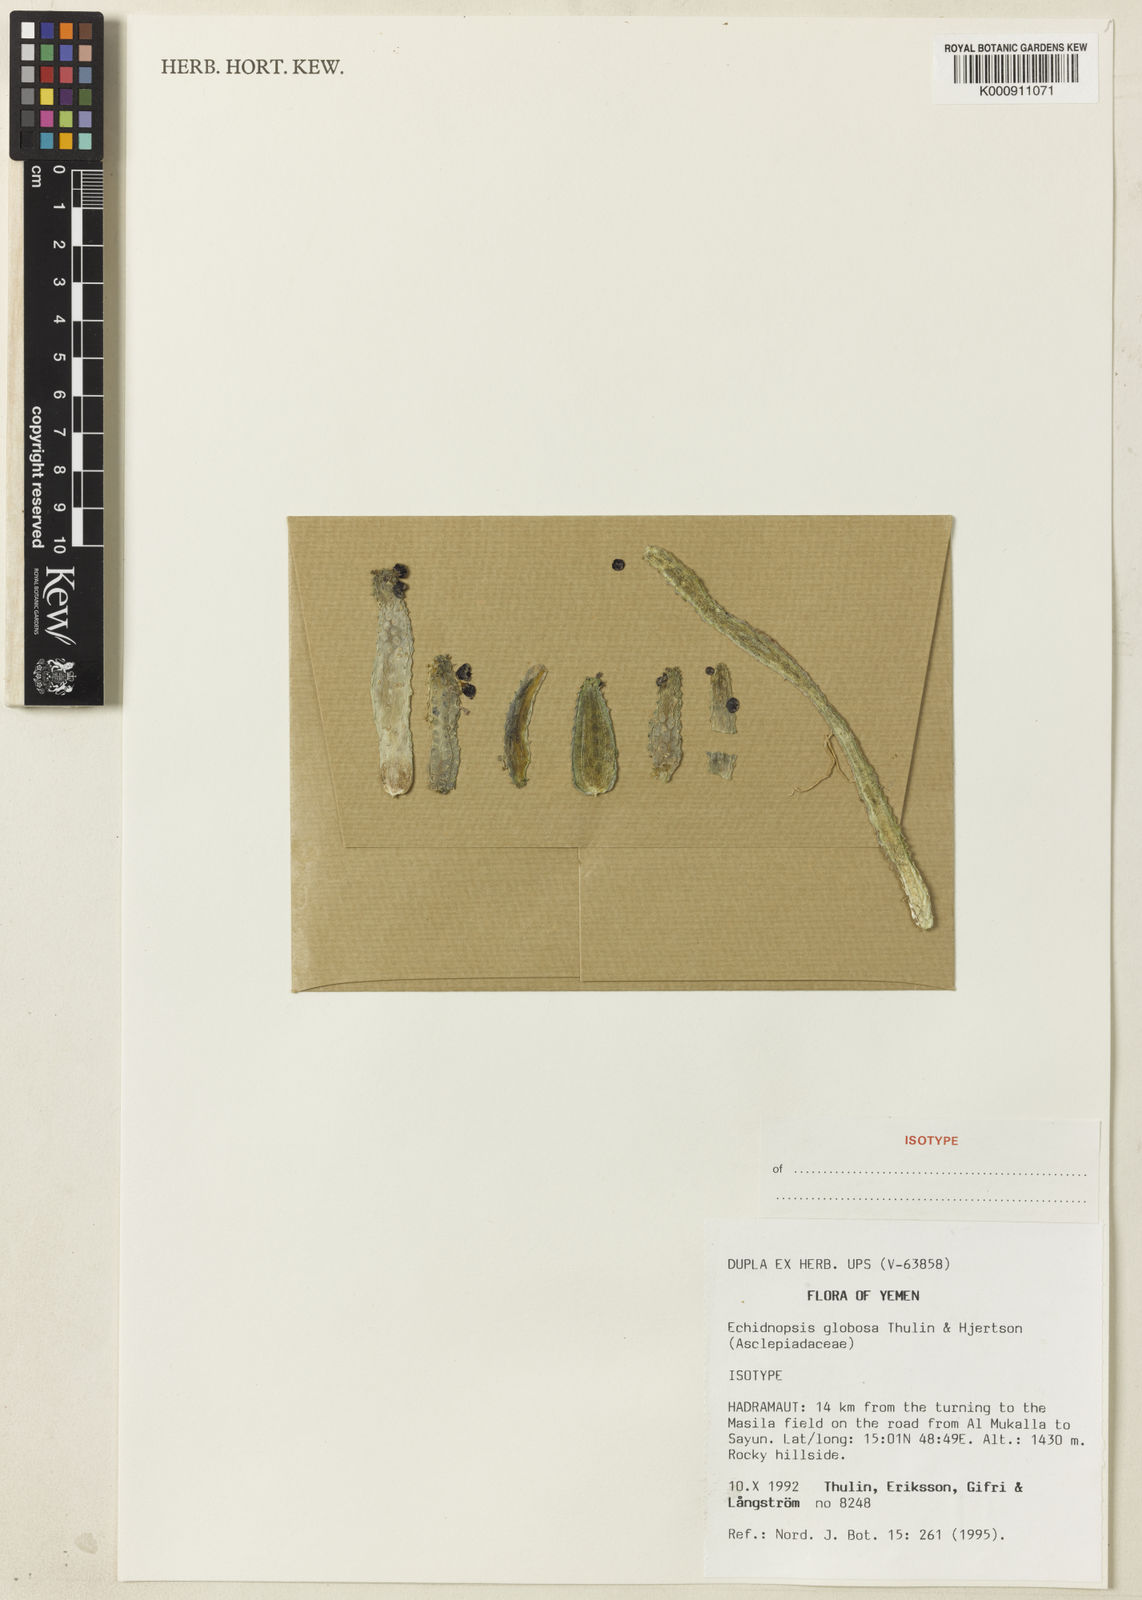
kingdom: Plantae
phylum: Tracheophyta
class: Magnoliopsida
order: Gentianales
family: Apocynaceae
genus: Ceropegia
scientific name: Ceropegia globosa
